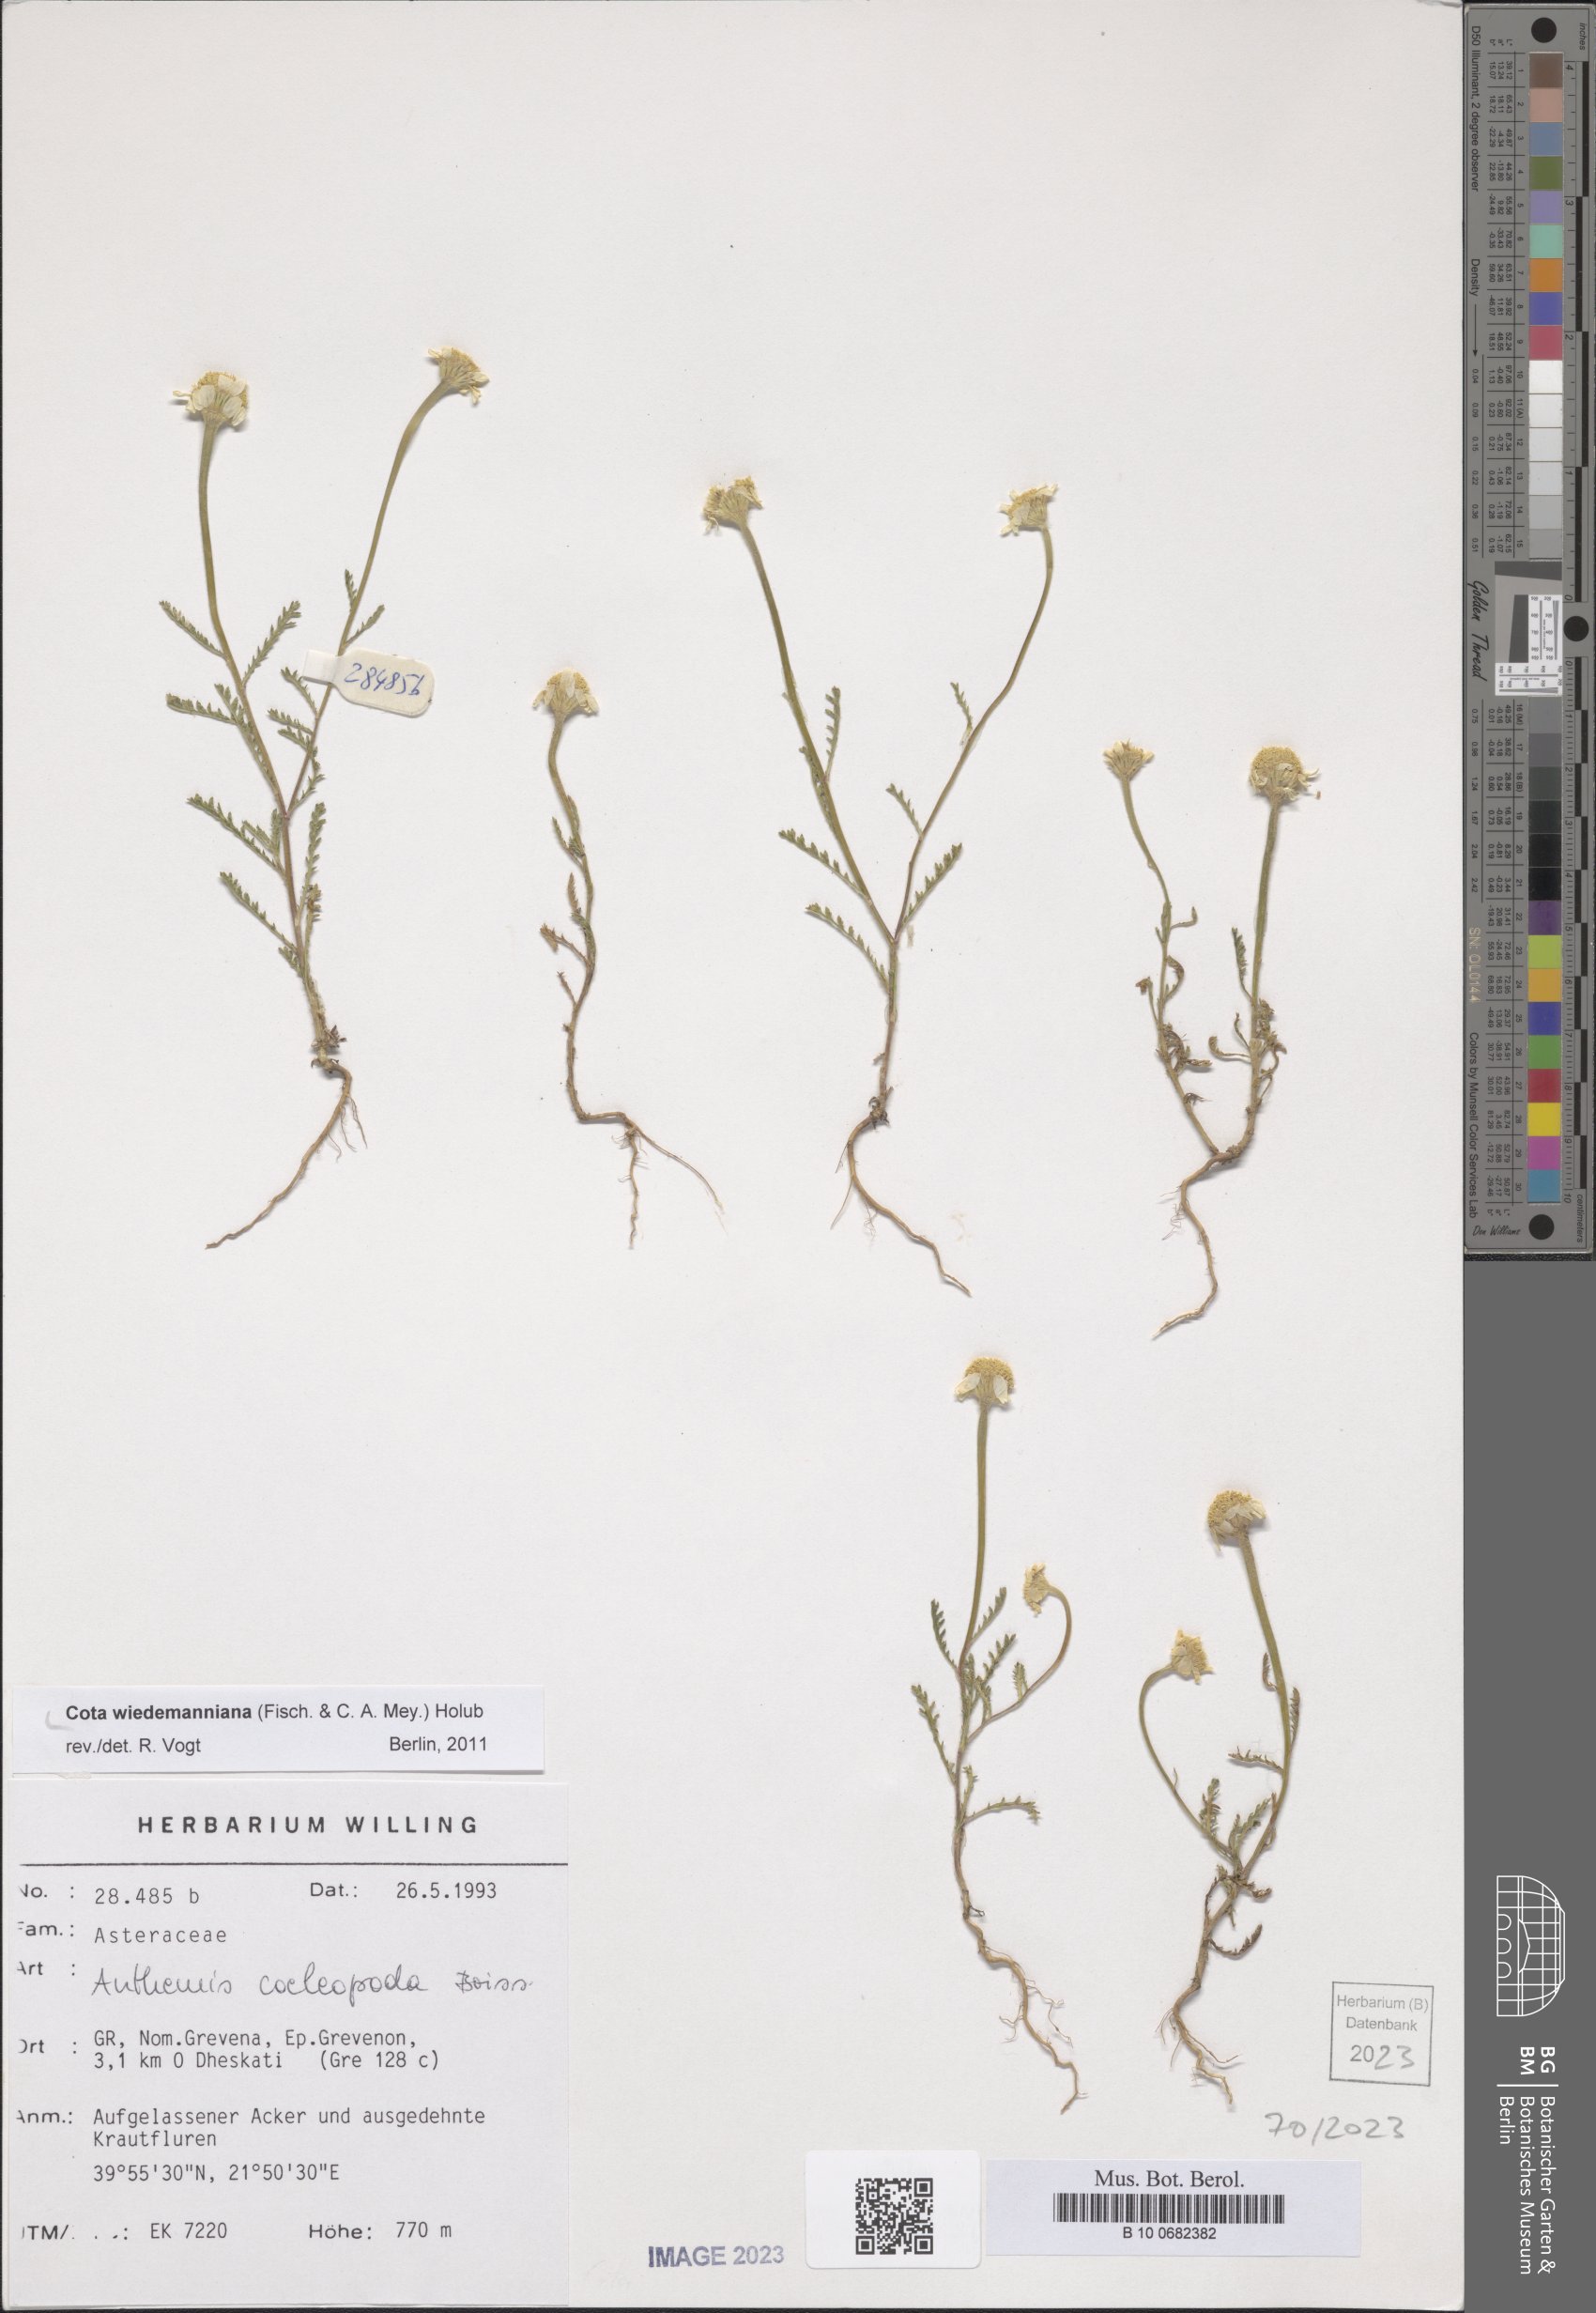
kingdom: Plantae
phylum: Tracheophyta
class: Magnoliopsida
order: Asterales
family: Asteraceae
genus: Cota
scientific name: Cota wiedemanniana
